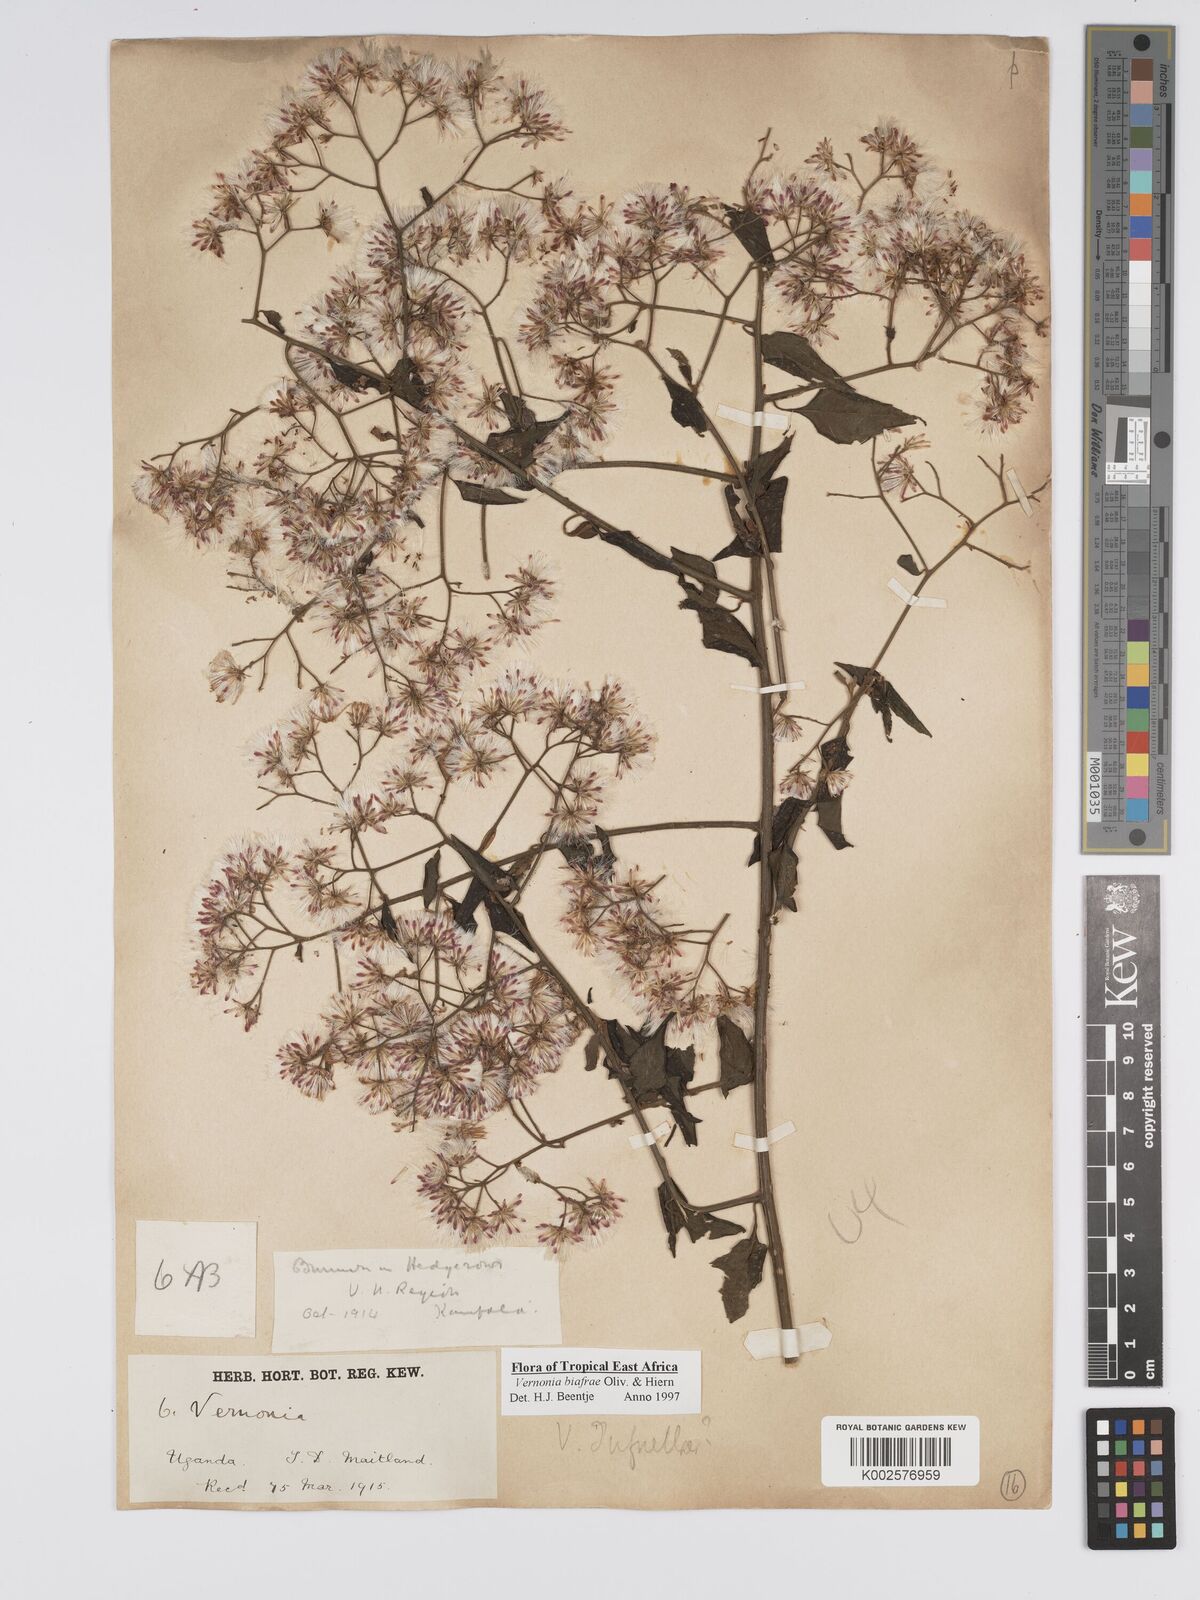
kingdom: Plantae
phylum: Tracheophyta
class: Magnoliopsida
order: Asterales
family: Asteraceae
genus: Distephanus
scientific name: Distephanus biafrae
